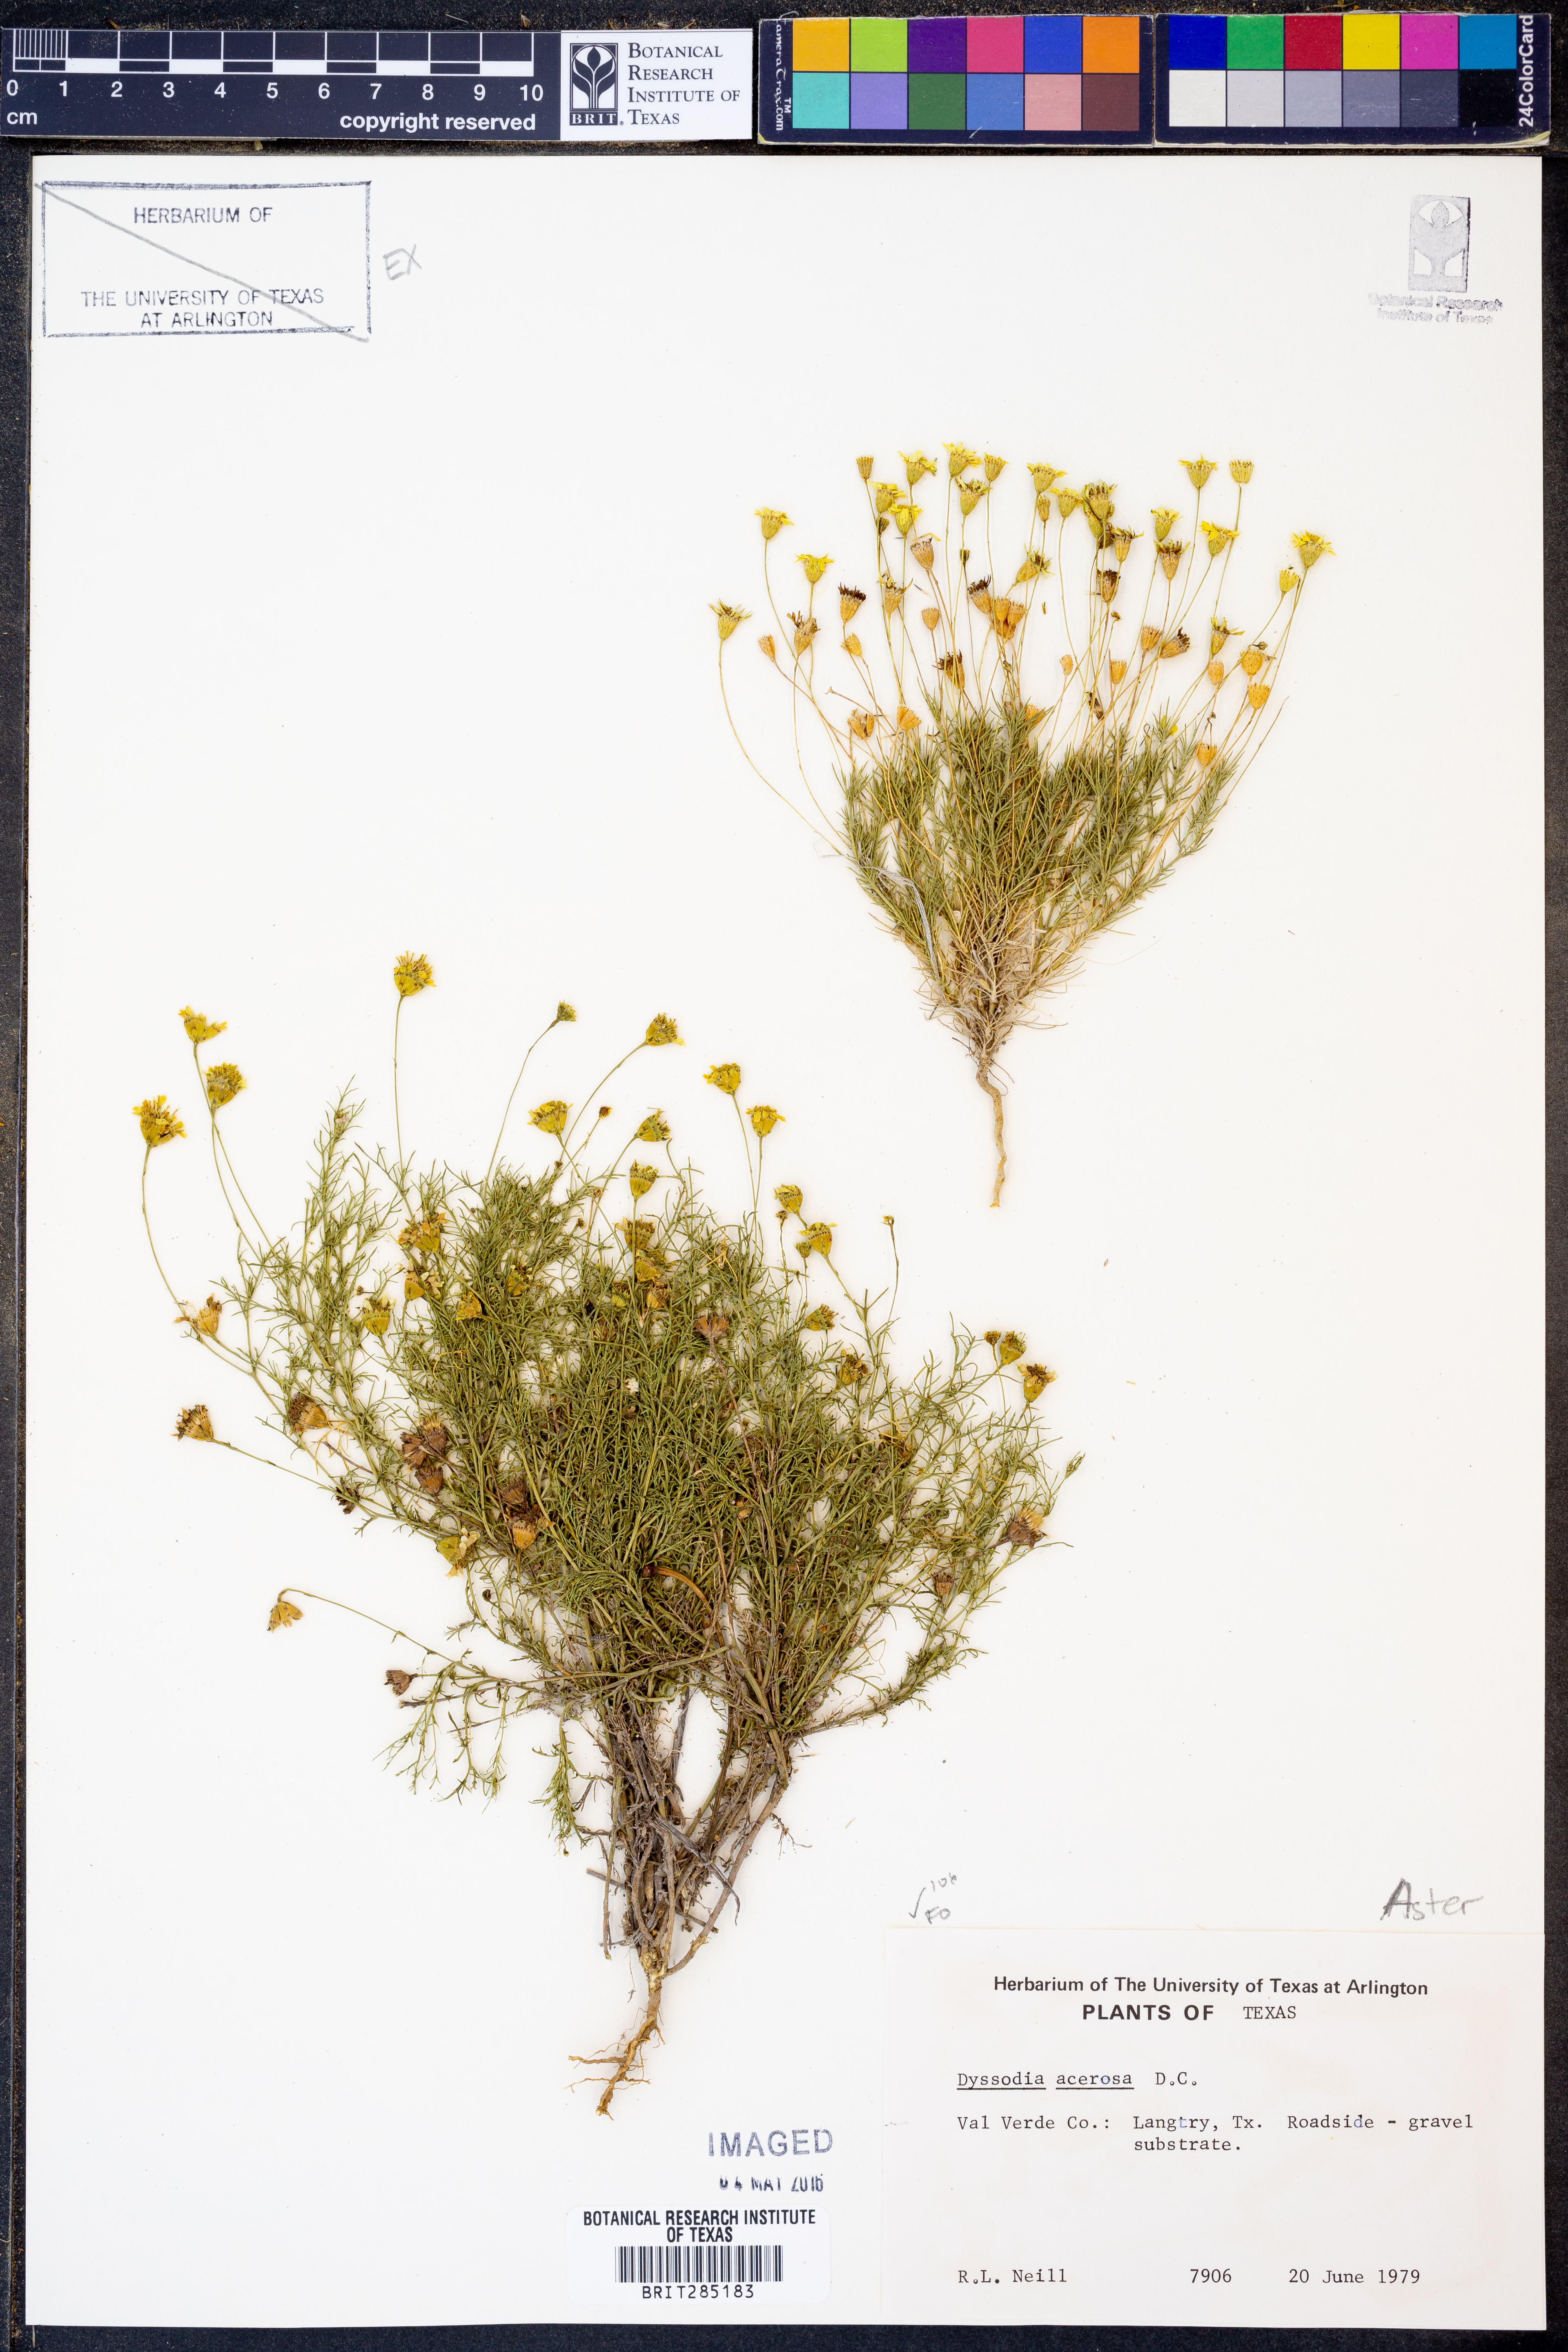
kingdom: Plantae
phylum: Tracheophyta
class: Magnoliopsida
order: Asterales
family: Asteraceae
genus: Thymophylla
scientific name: Thymophylla acerosa
